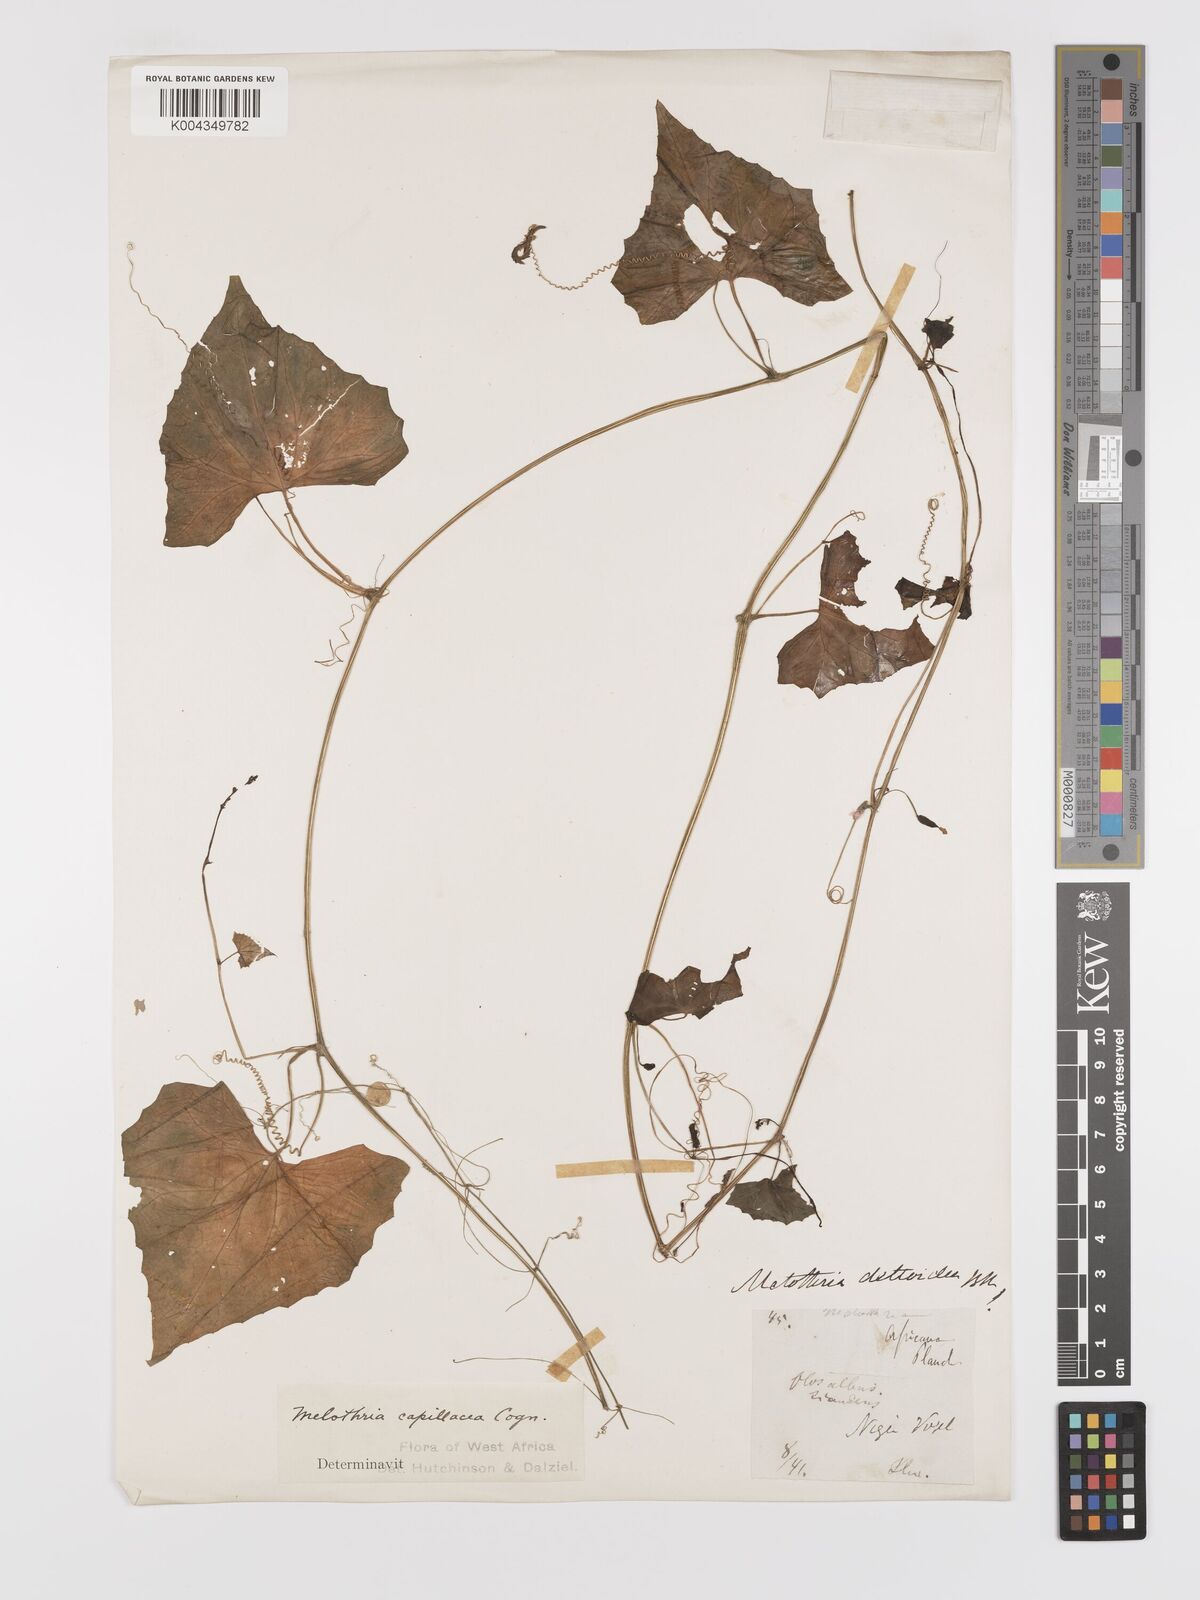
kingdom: Plantae
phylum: Tracheophyta
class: Magnoliopsida
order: Cucurbitales
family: Cucurbitaceae
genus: Zehneria
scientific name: Zehneria capillacea
